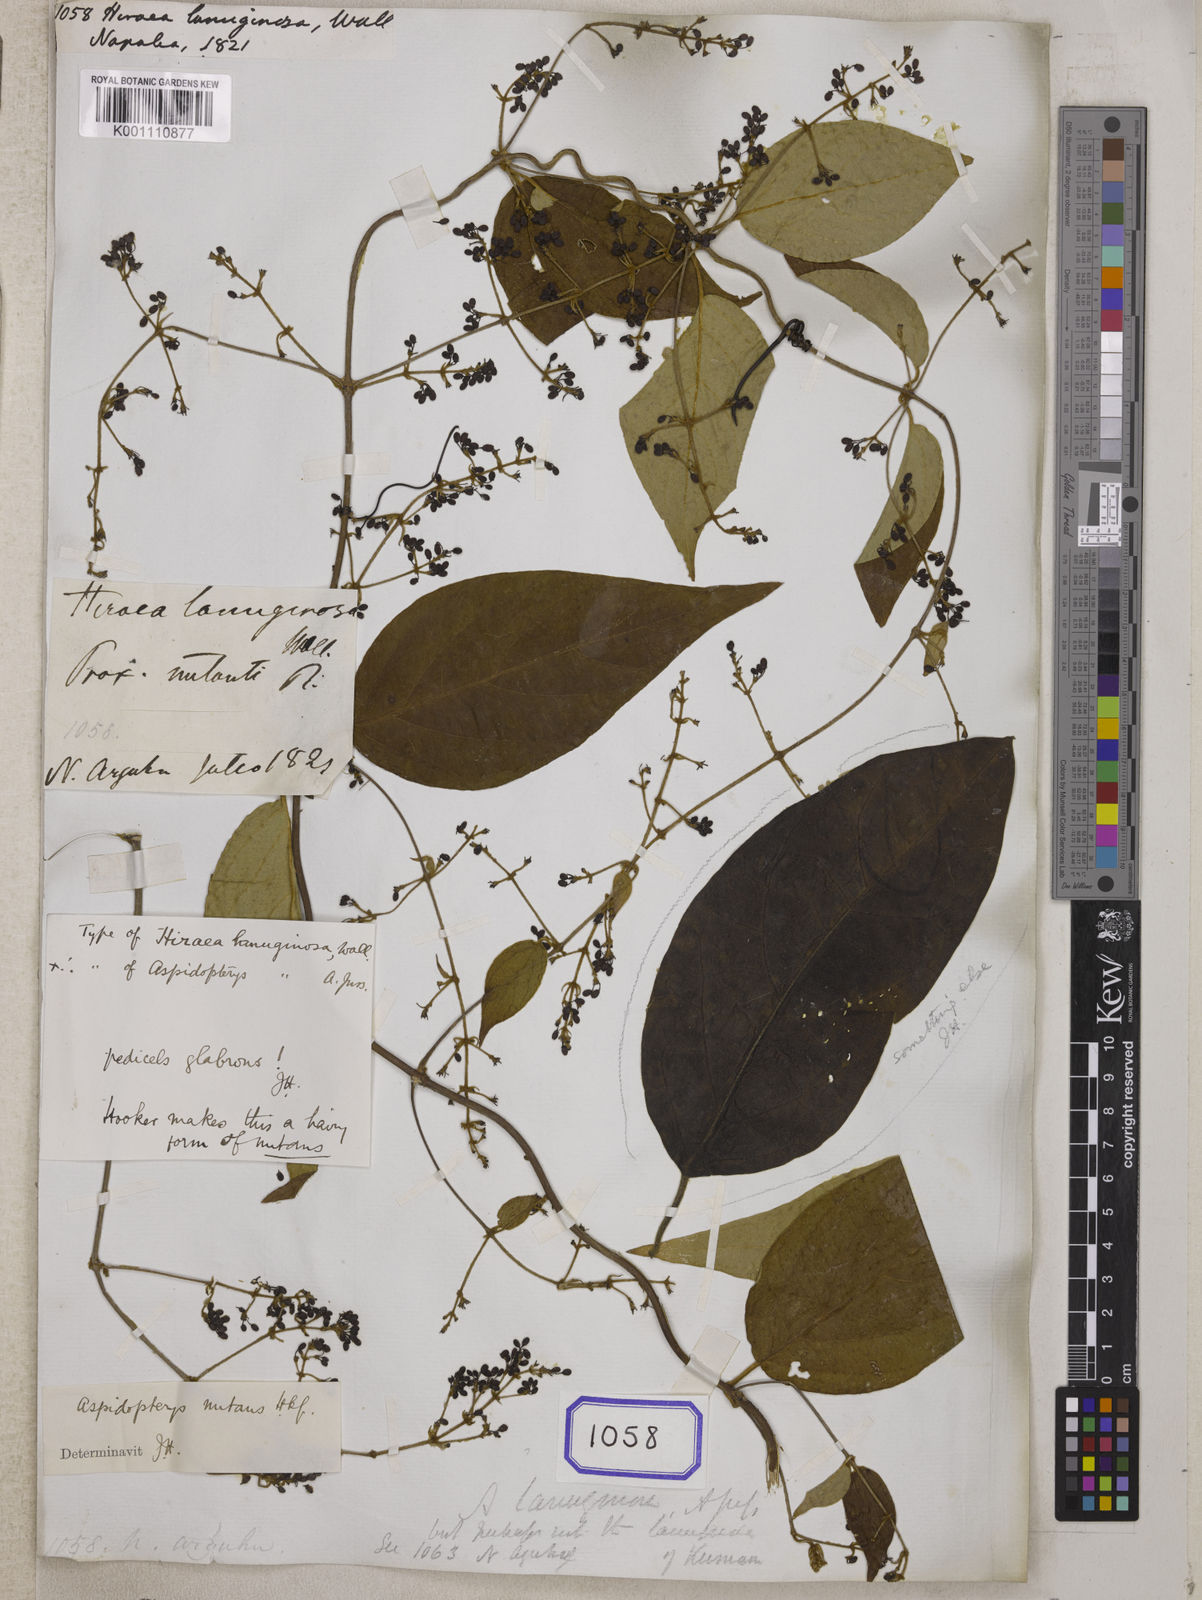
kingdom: Plantae
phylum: Tracheophyta
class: Magnoliopsida
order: Malpighiales
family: Malpighiaceae
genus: Aspidopterys
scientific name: Aspidopterys nutans
